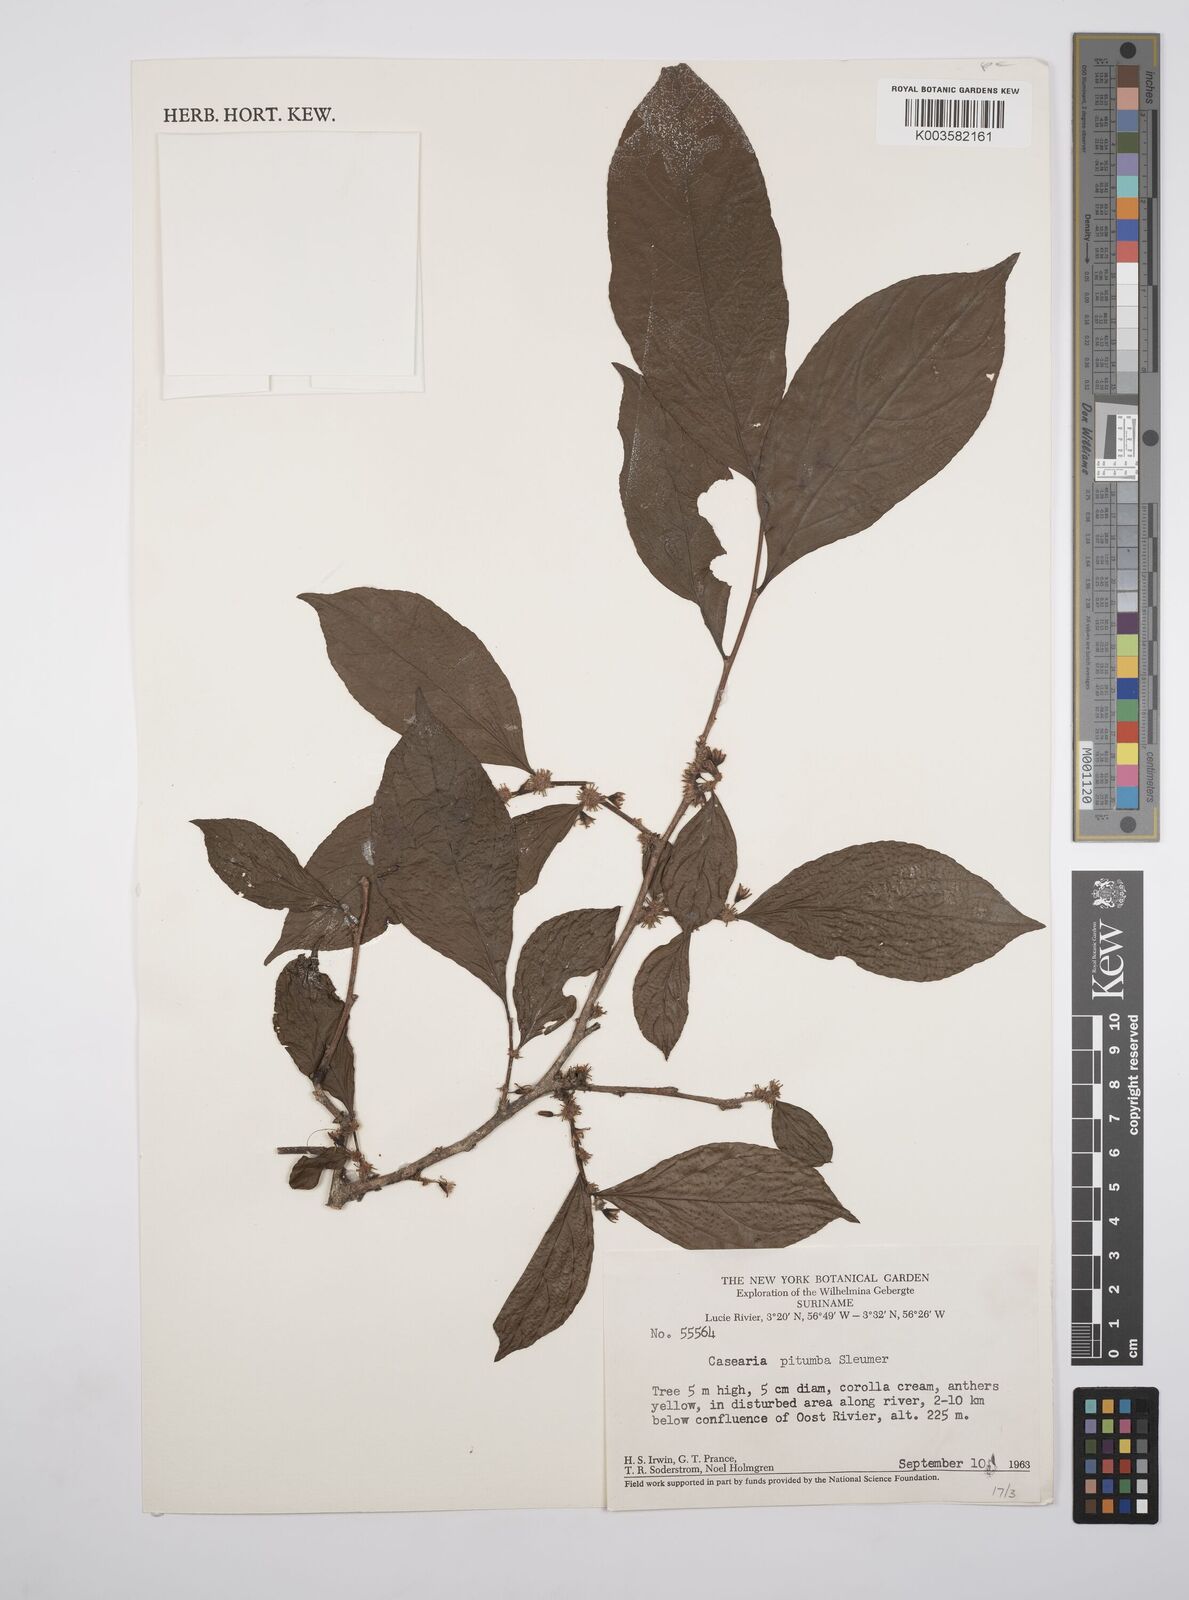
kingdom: Plantae
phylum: Tracheophyta
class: Magnoliopsida
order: Malpighiales
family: Salicaceae
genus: Casearia
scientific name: Casearia pitumba
